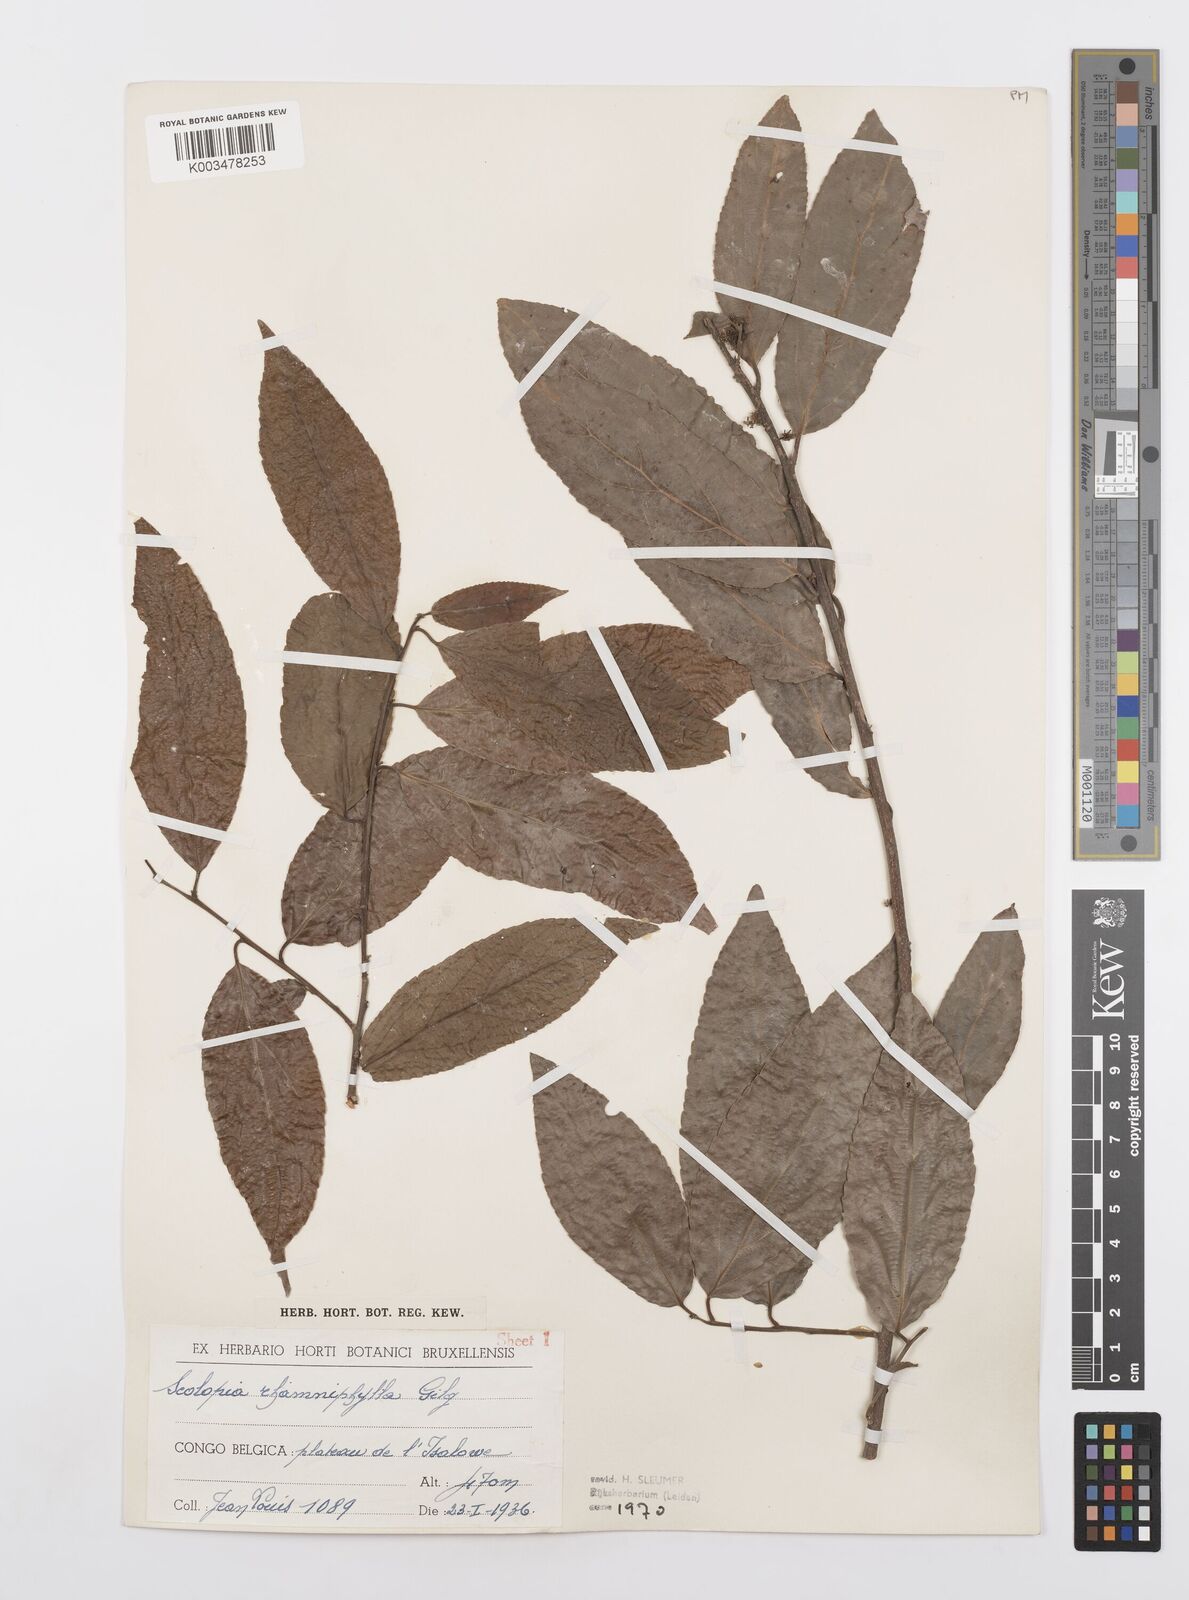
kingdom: Plantae
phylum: Tracheophyta
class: Magnoliopsida
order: Malpighiales
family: Salicaceae
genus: Scolopia
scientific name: Scolopia rhamniphylla
